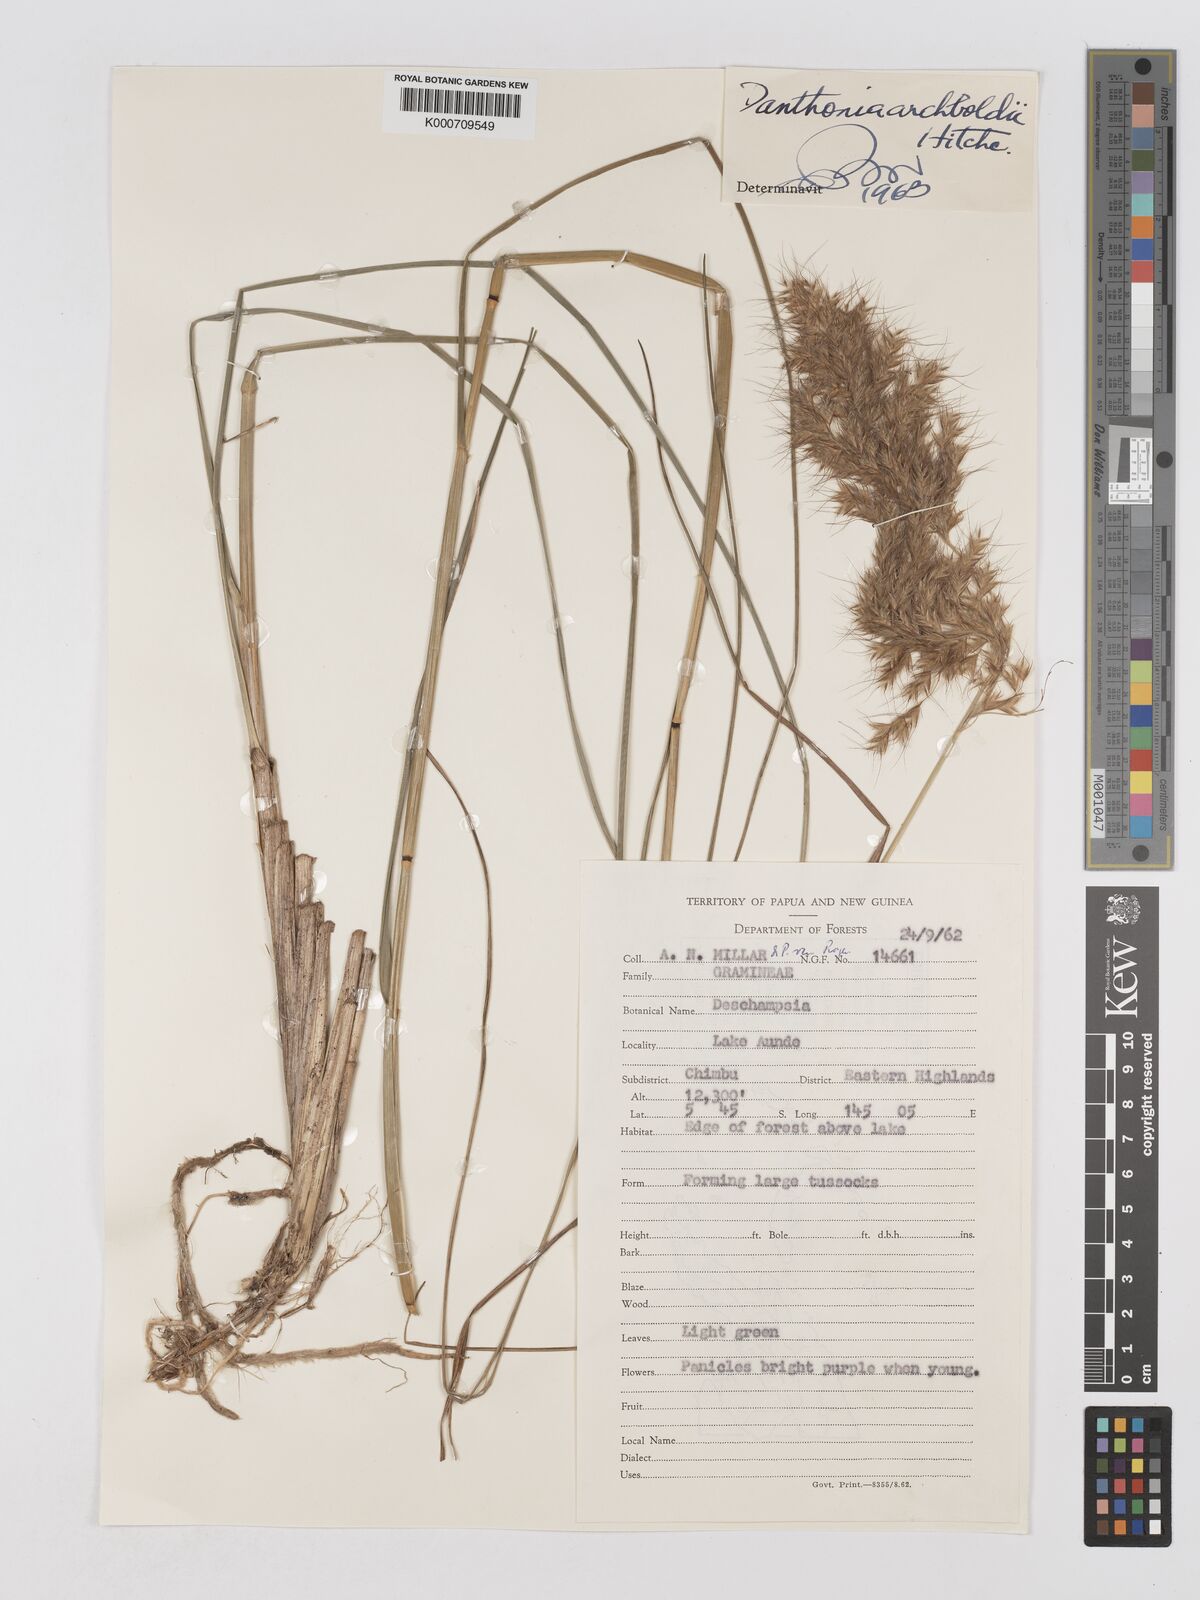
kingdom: Plantae
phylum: Tracheophyta
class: Liliopsida
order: Poales
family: Poaceae
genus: Chimaerochloa
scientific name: Chimaerochloa archboldii
